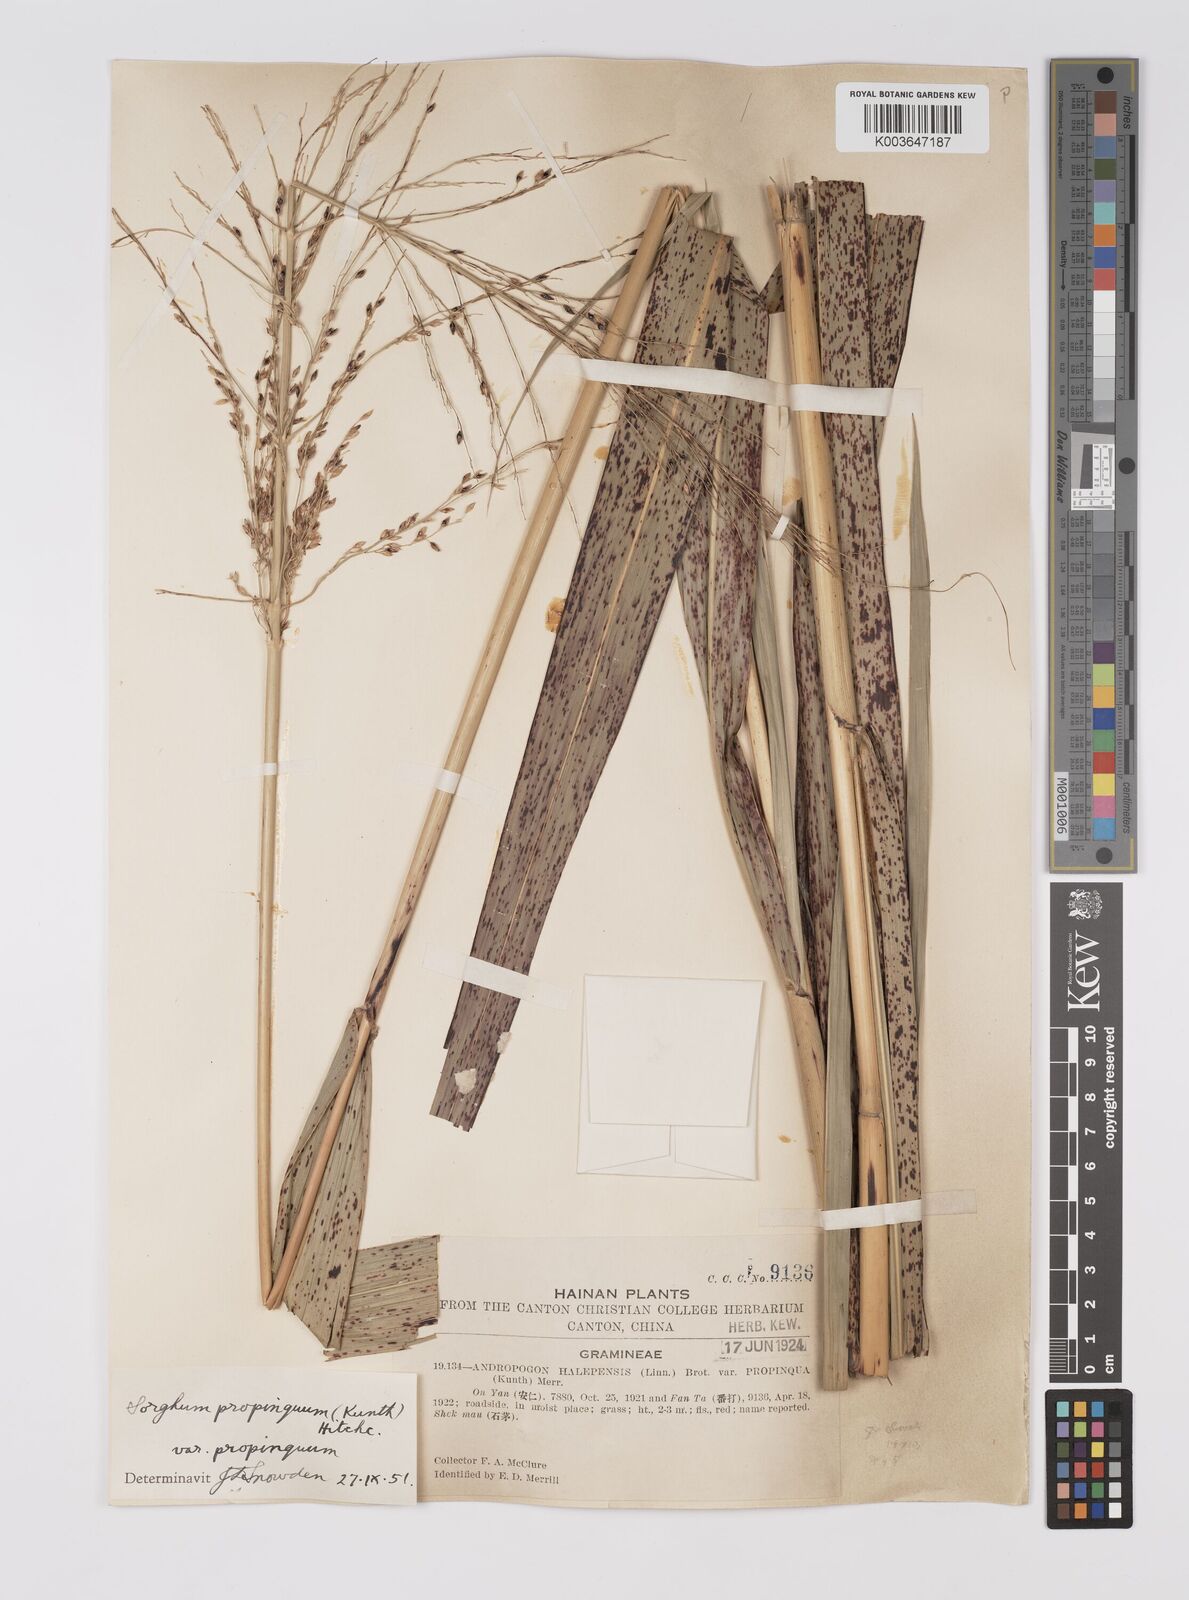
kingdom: Plantae
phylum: Tracheophyta
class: Liliopsida
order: Poales
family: Poaceae
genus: Sorghum
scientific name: Sorghum propinquum
